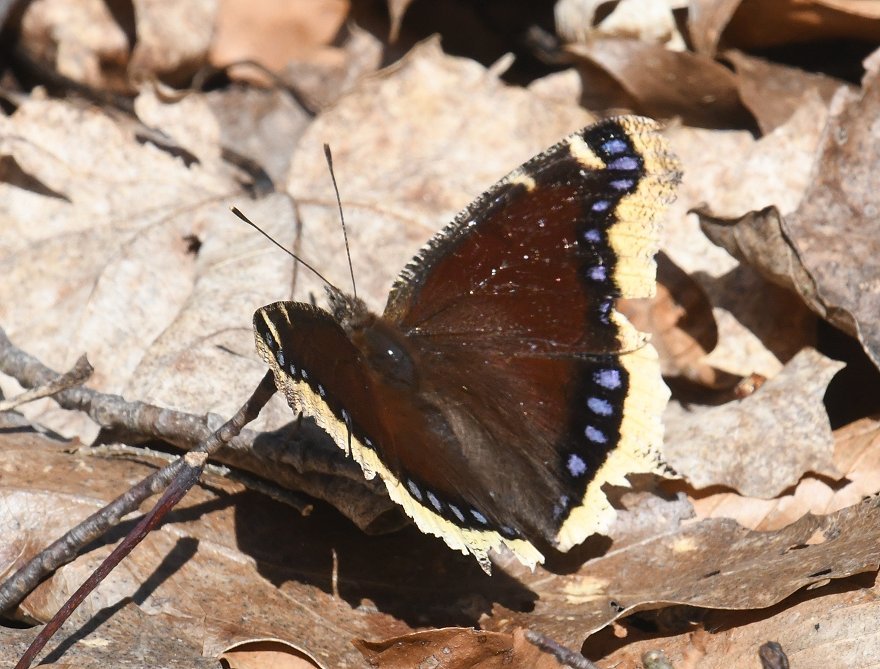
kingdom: Animalia
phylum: Arthropoda
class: Insecta
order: Lepidoptera
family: Nymphalidae
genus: Nymphalis
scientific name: Nymphalis antiopa
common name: Mourning Cloak
